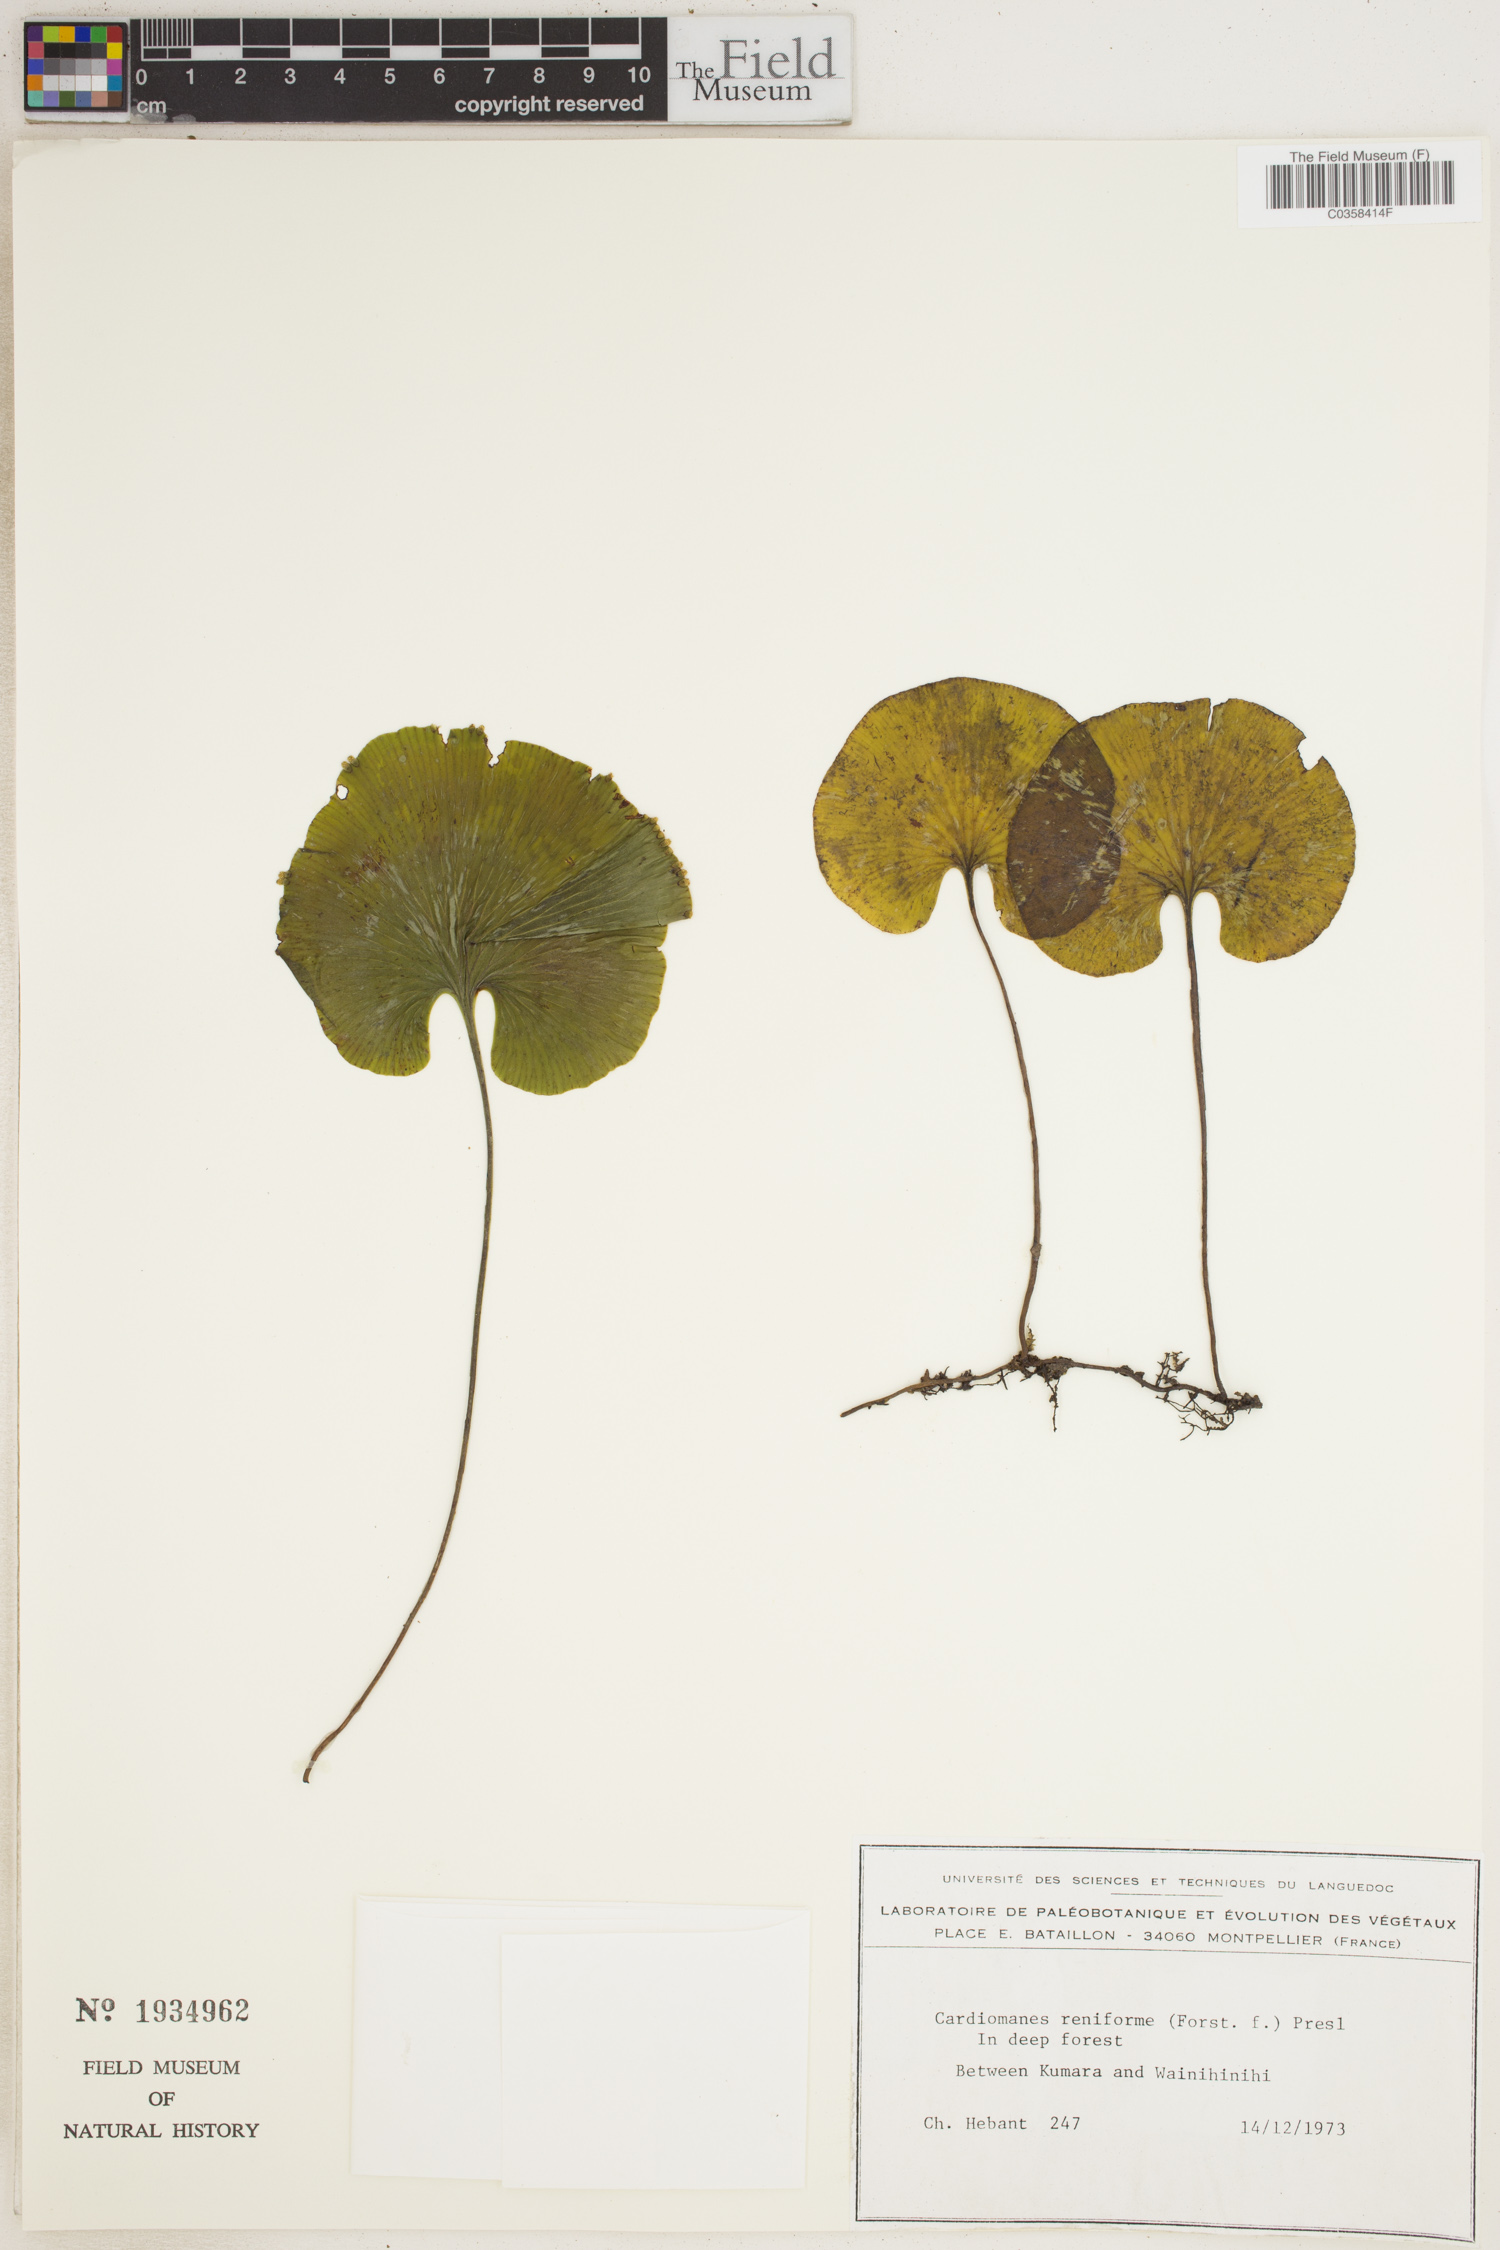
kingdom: Plantae
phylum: Tracheophyta
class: Polypodiopsida
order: Hymenophyllales
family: Hymenophyllaceae
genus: Hymenophyllum
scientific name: Hymenophyllum nephrophyllum
